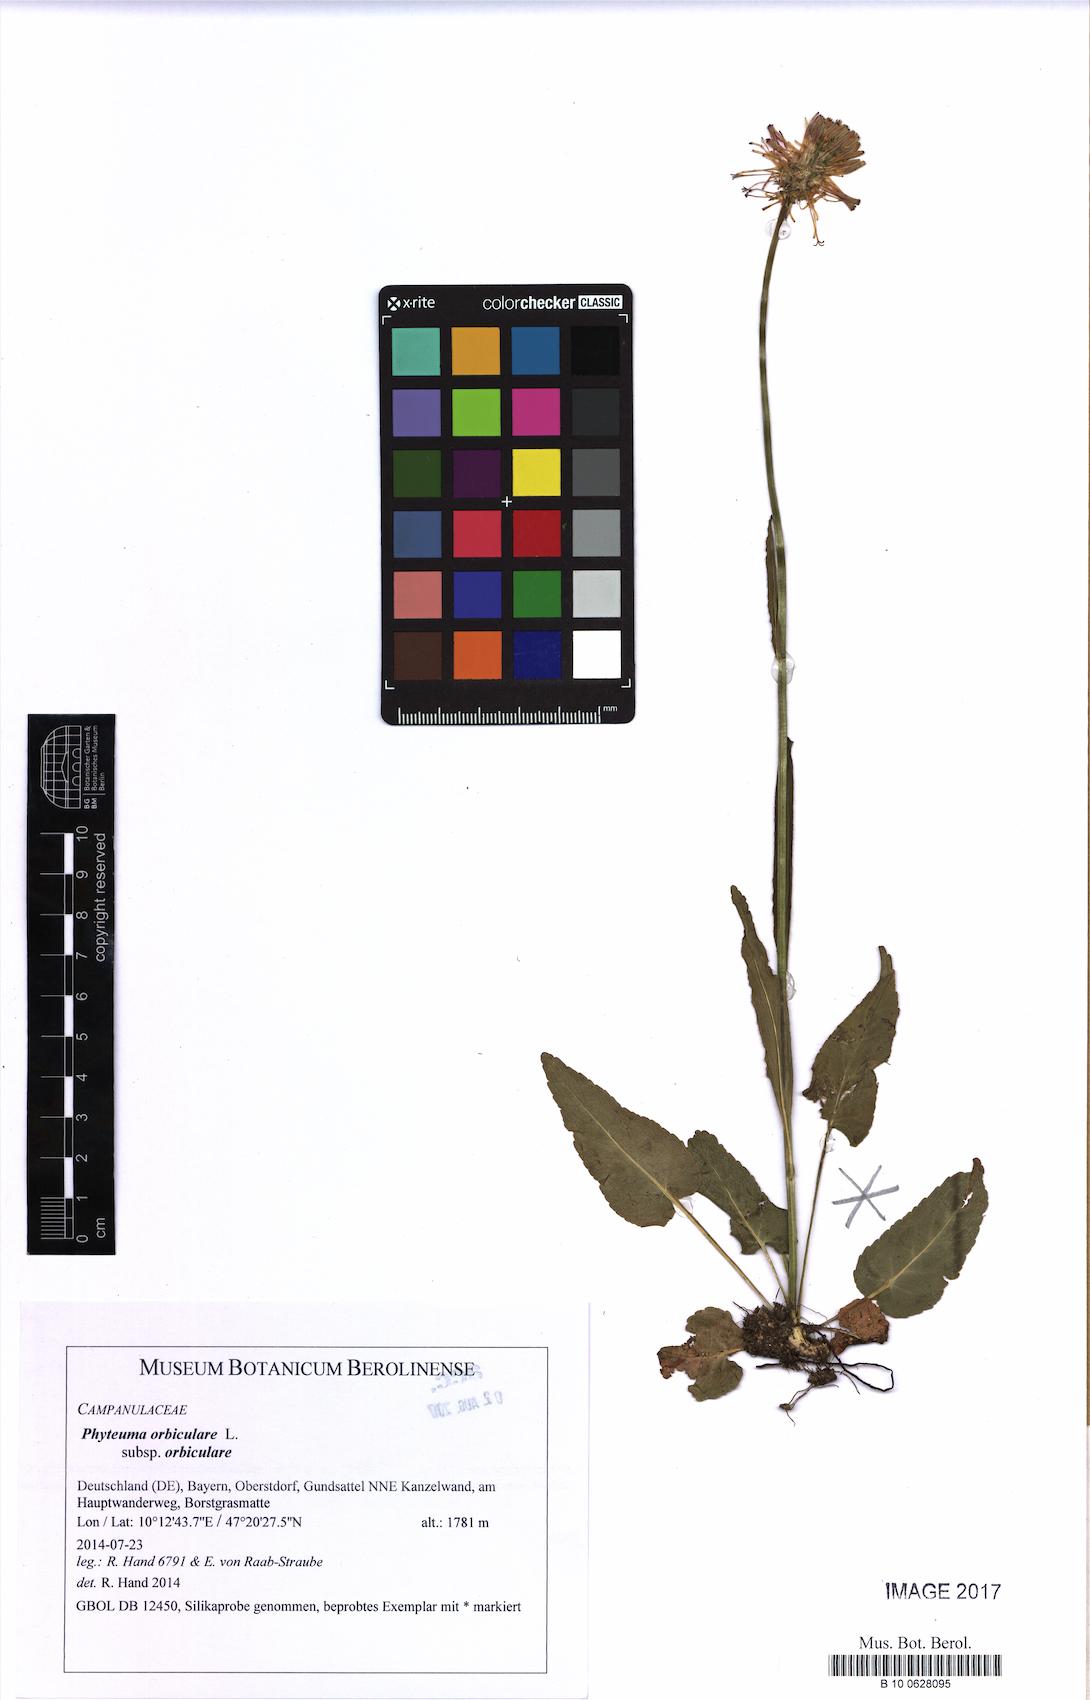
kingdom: Plantae
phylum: Tracheophyta
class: Magnoliopsida
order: Asterales
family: Campanulaceae
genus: Phyteuma
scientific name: Phyteuma orbiculare
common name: Round-headed rampion
